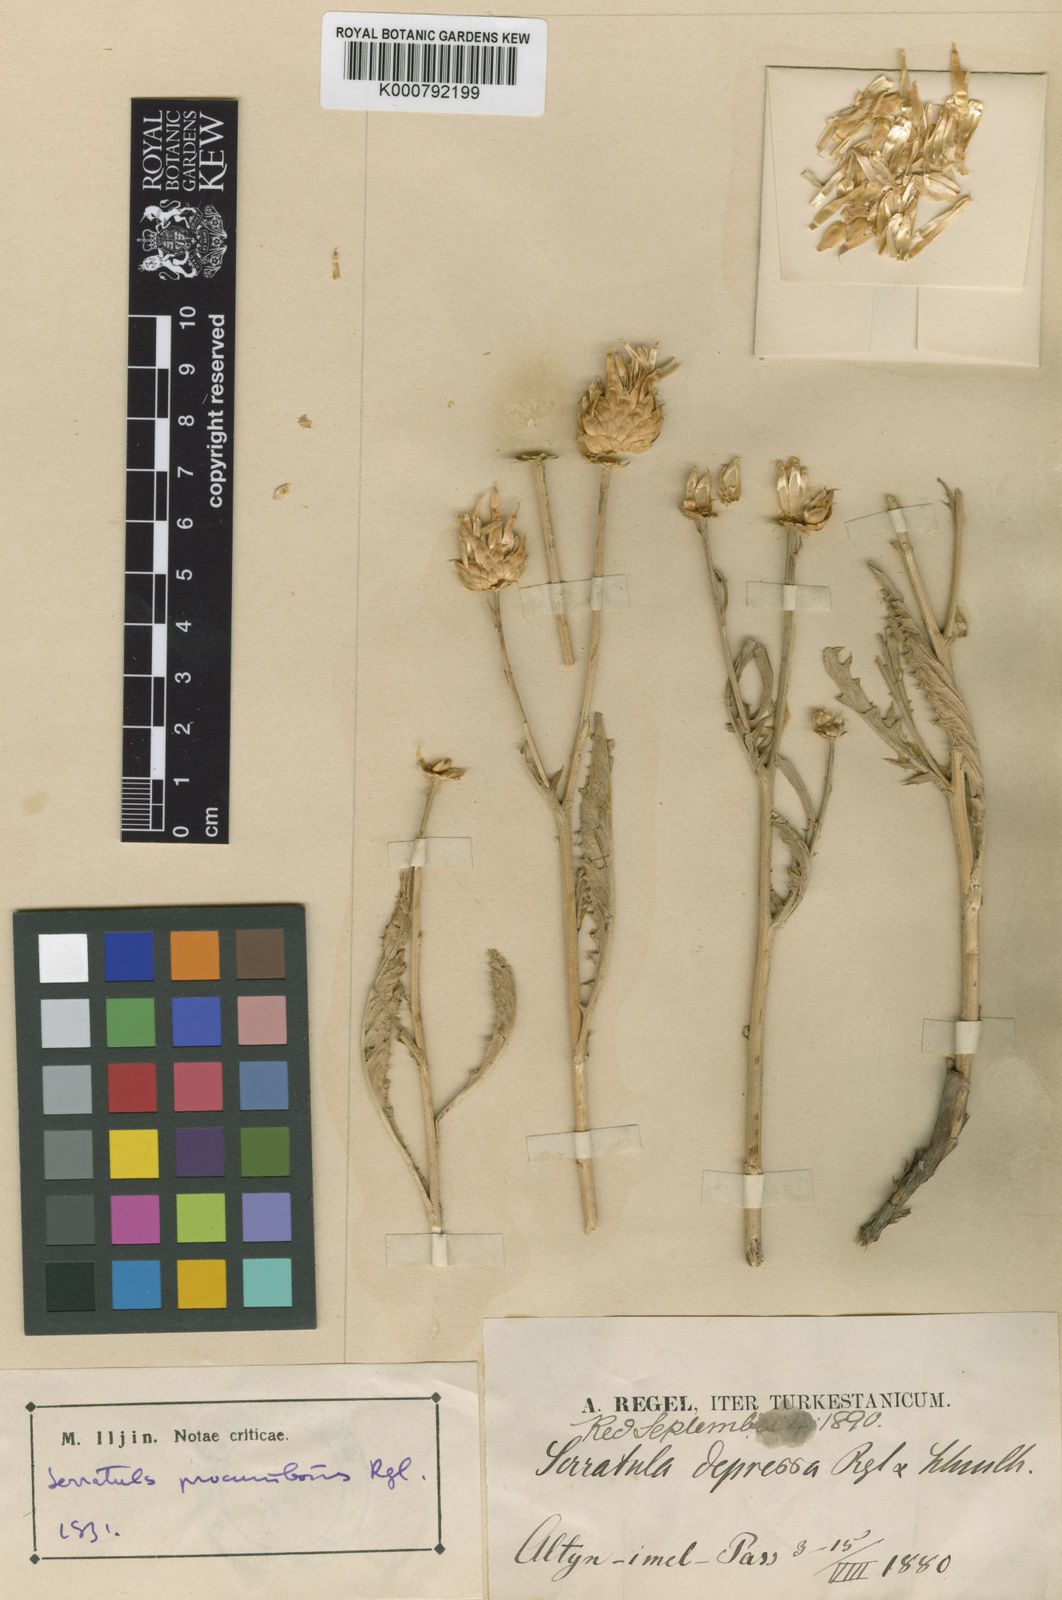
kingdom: Plantae
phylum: Tracheophyta
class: Magnoliopsida
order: Asterales
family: Asteraceae
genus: Serratula
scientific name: Serratula depressa
